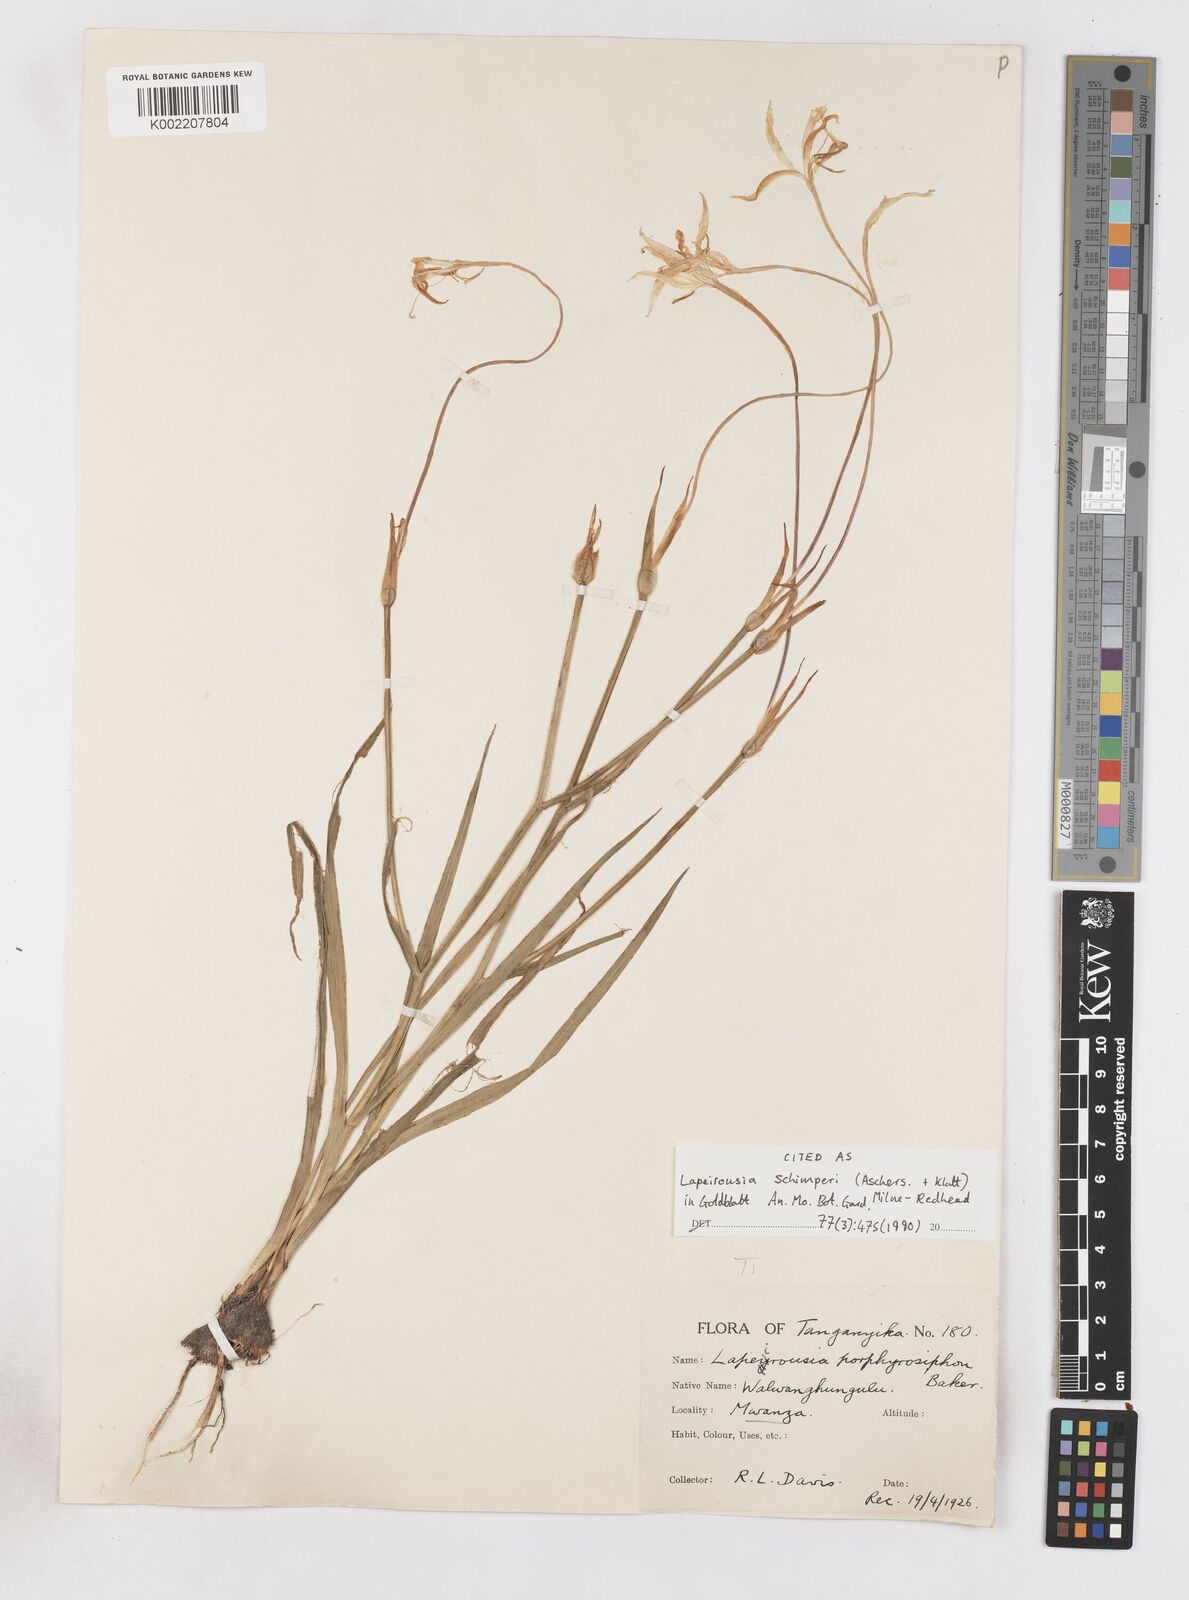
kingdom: Plantae
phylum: Tracheophyta
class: Liliopsida
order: Asparagales
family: Iridaceae
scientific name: Iridaceae
